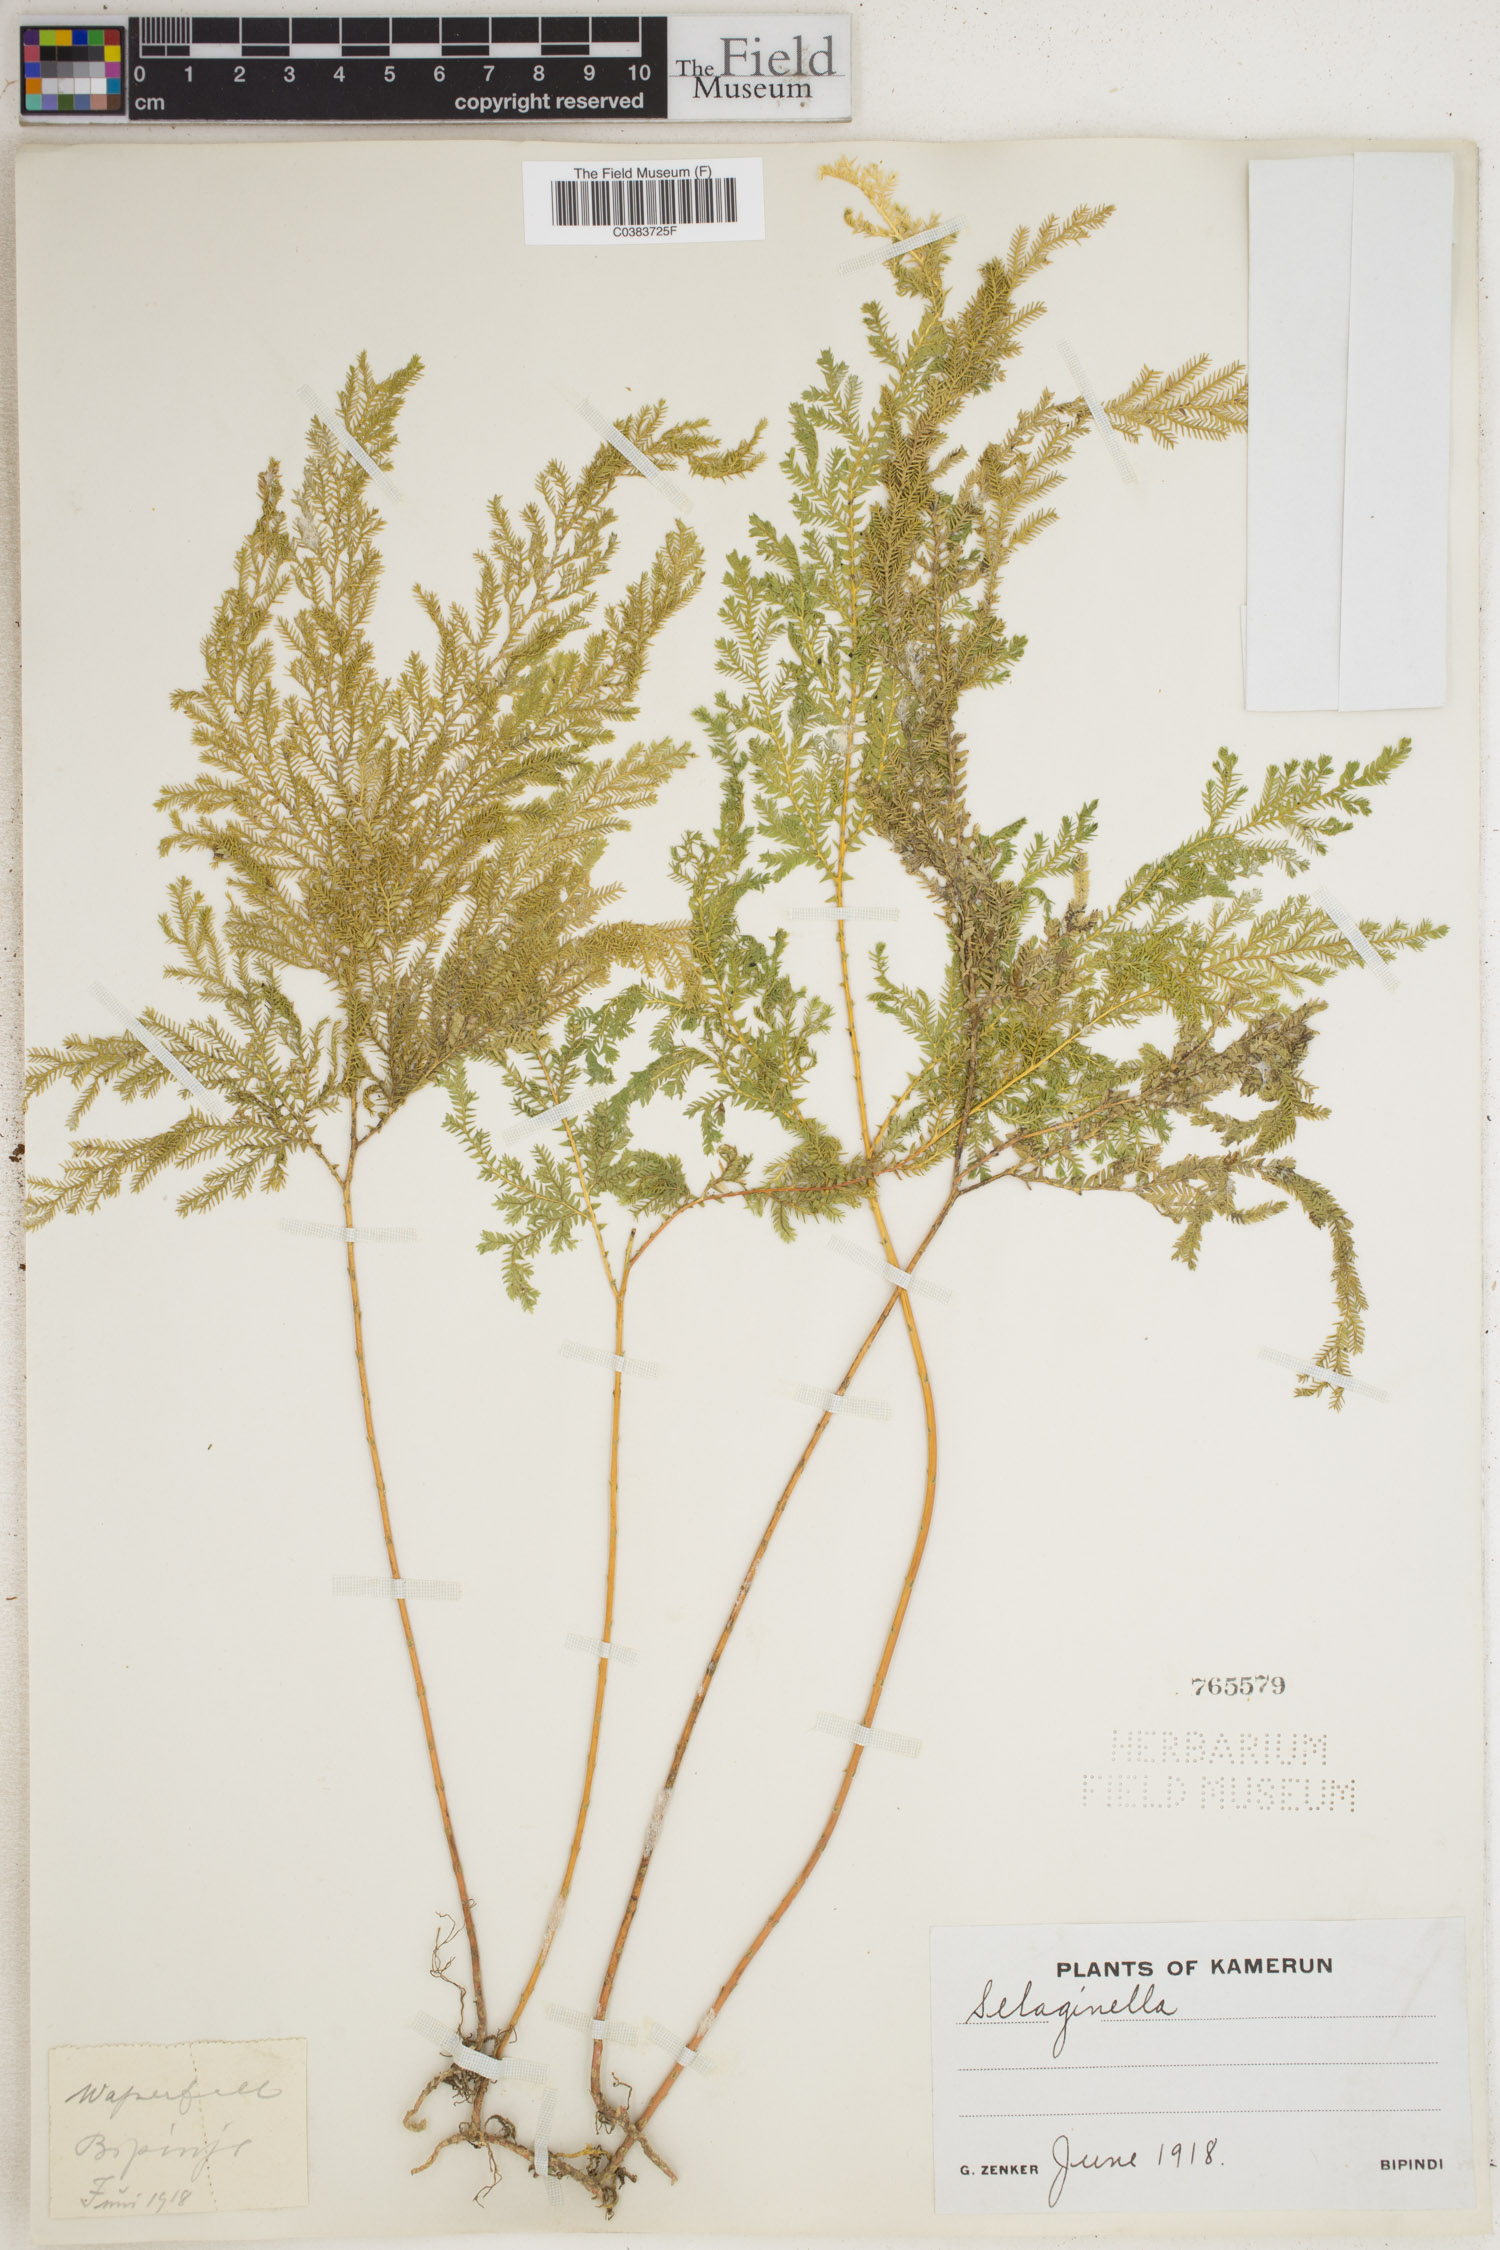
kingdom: Plantae
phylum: Tracheophyta
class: Lycopodiopsida
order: Selaginellales
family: Selaginellaceae
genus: Selaginella
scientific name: Selaginella
